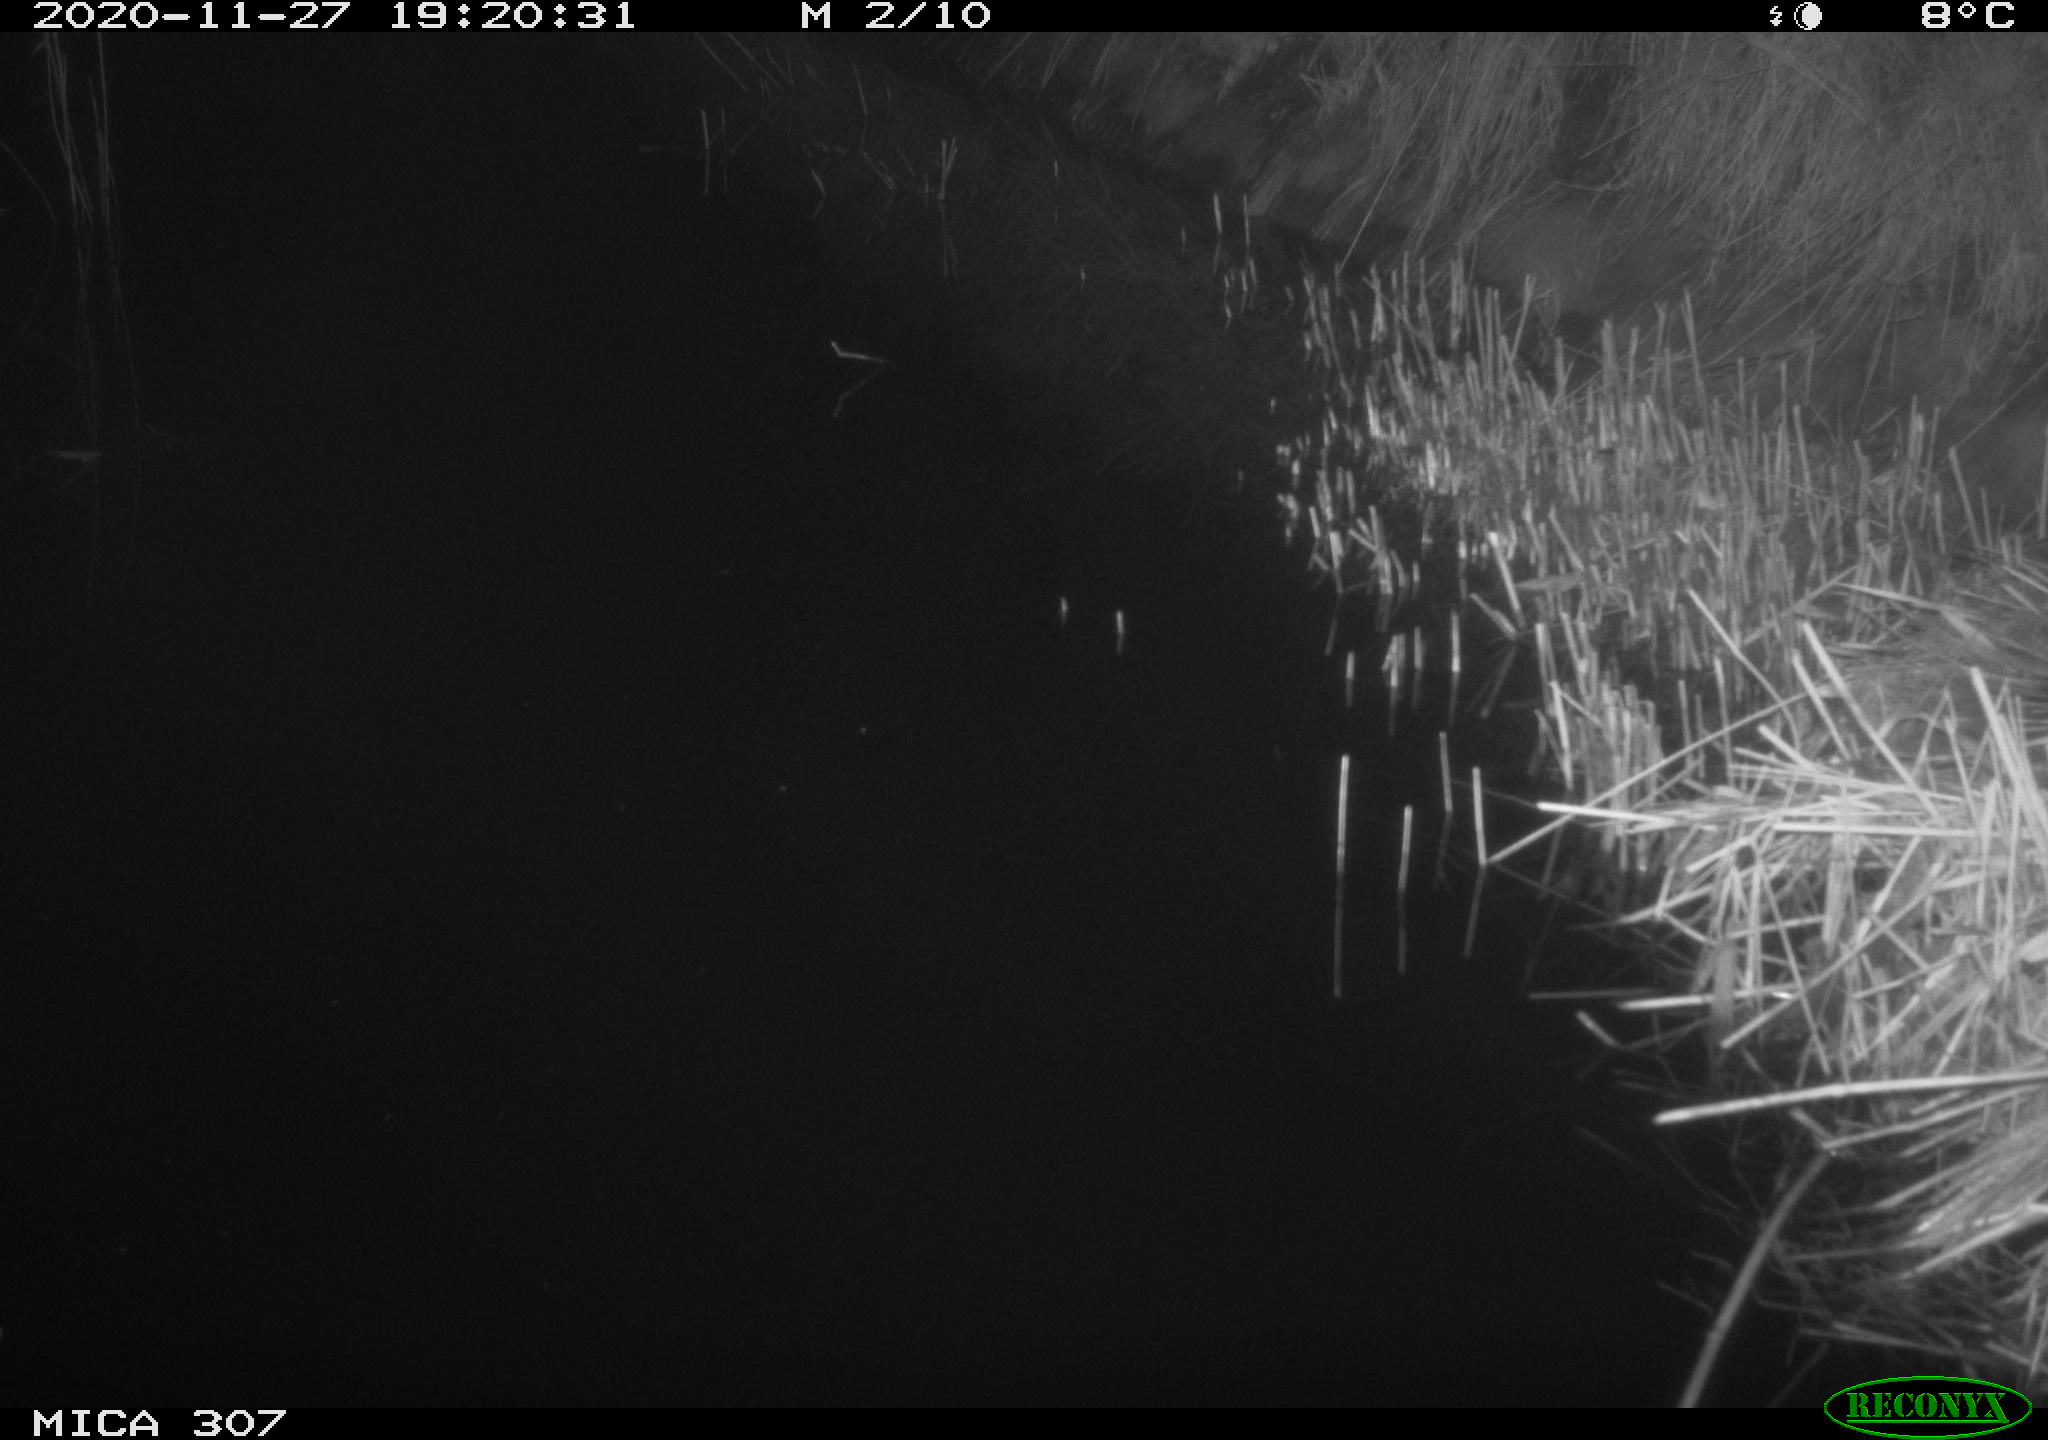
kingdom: Animalia
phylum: Chordata
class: Mammalia
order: Rodentia
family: Muridae
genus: Rattus
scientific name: Rattus norvegicus
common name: Brown rat
